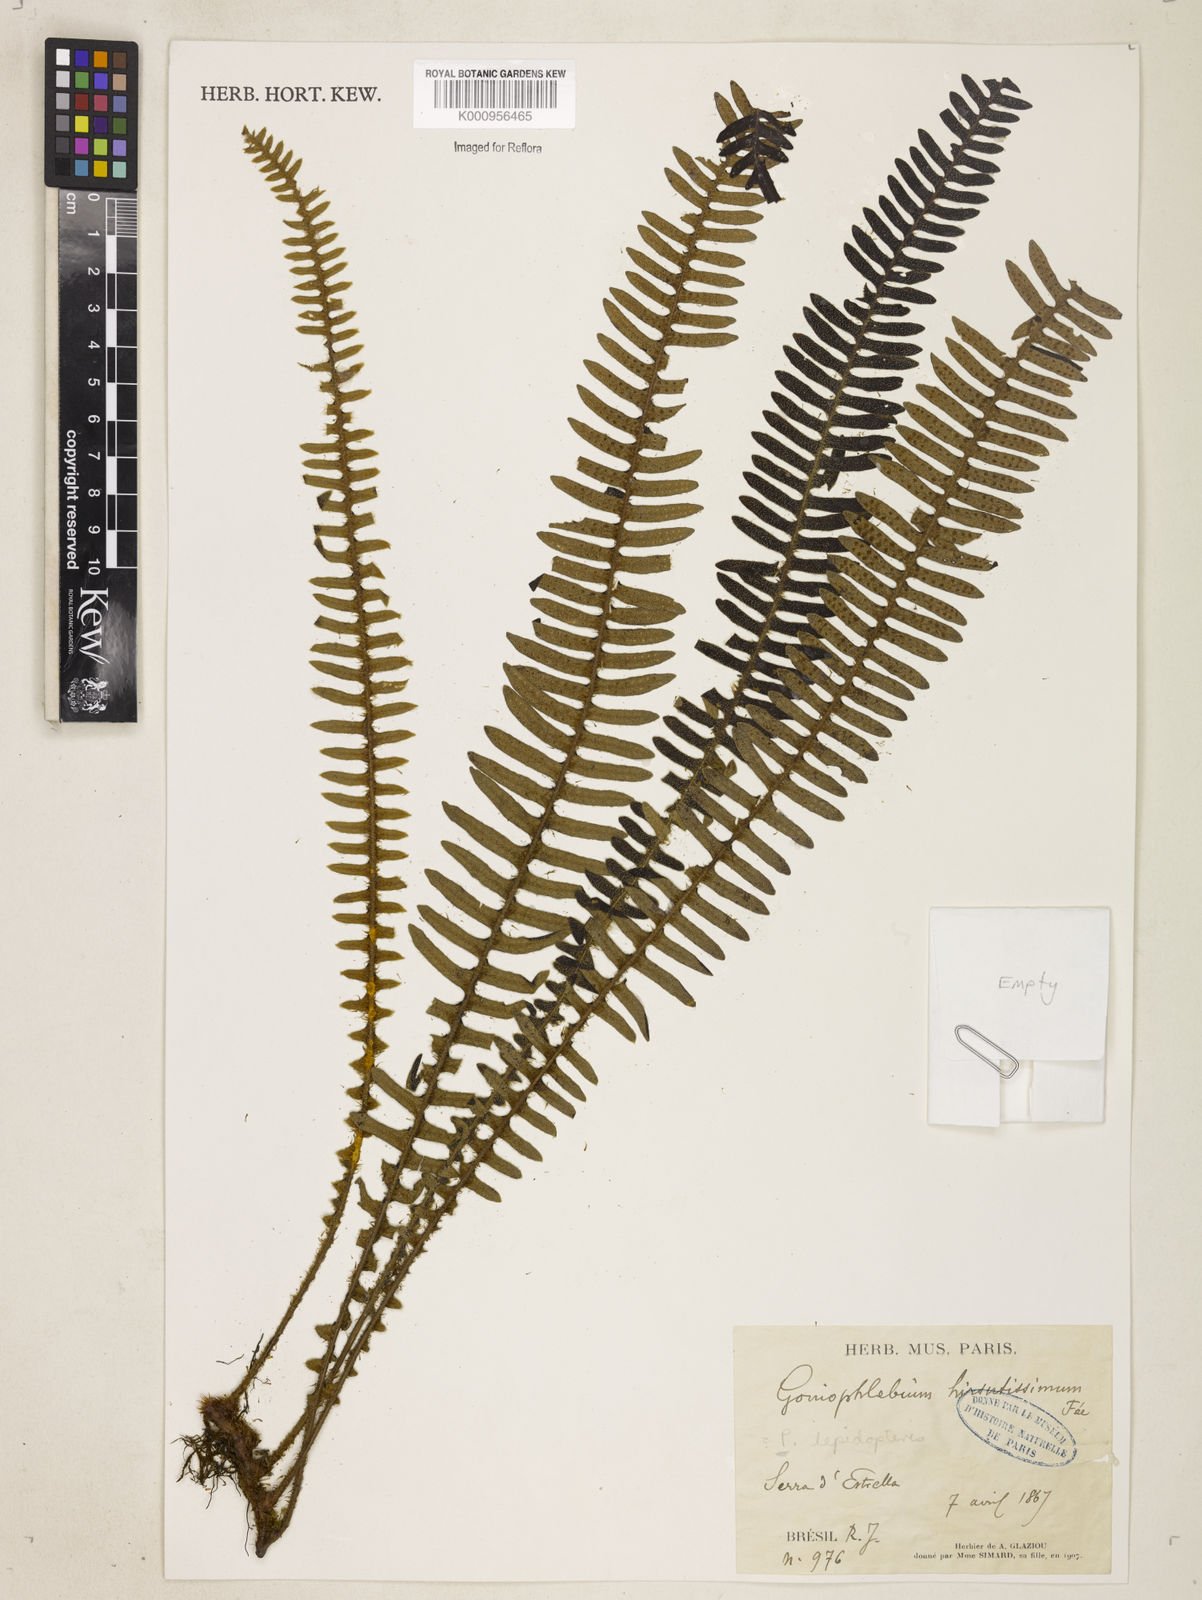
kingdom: Plantae
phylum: Tracheophyta
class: Polypodiopsida
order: Polypodiales
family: Polypodiaceae
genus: Polypodium
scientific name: Polypodium
